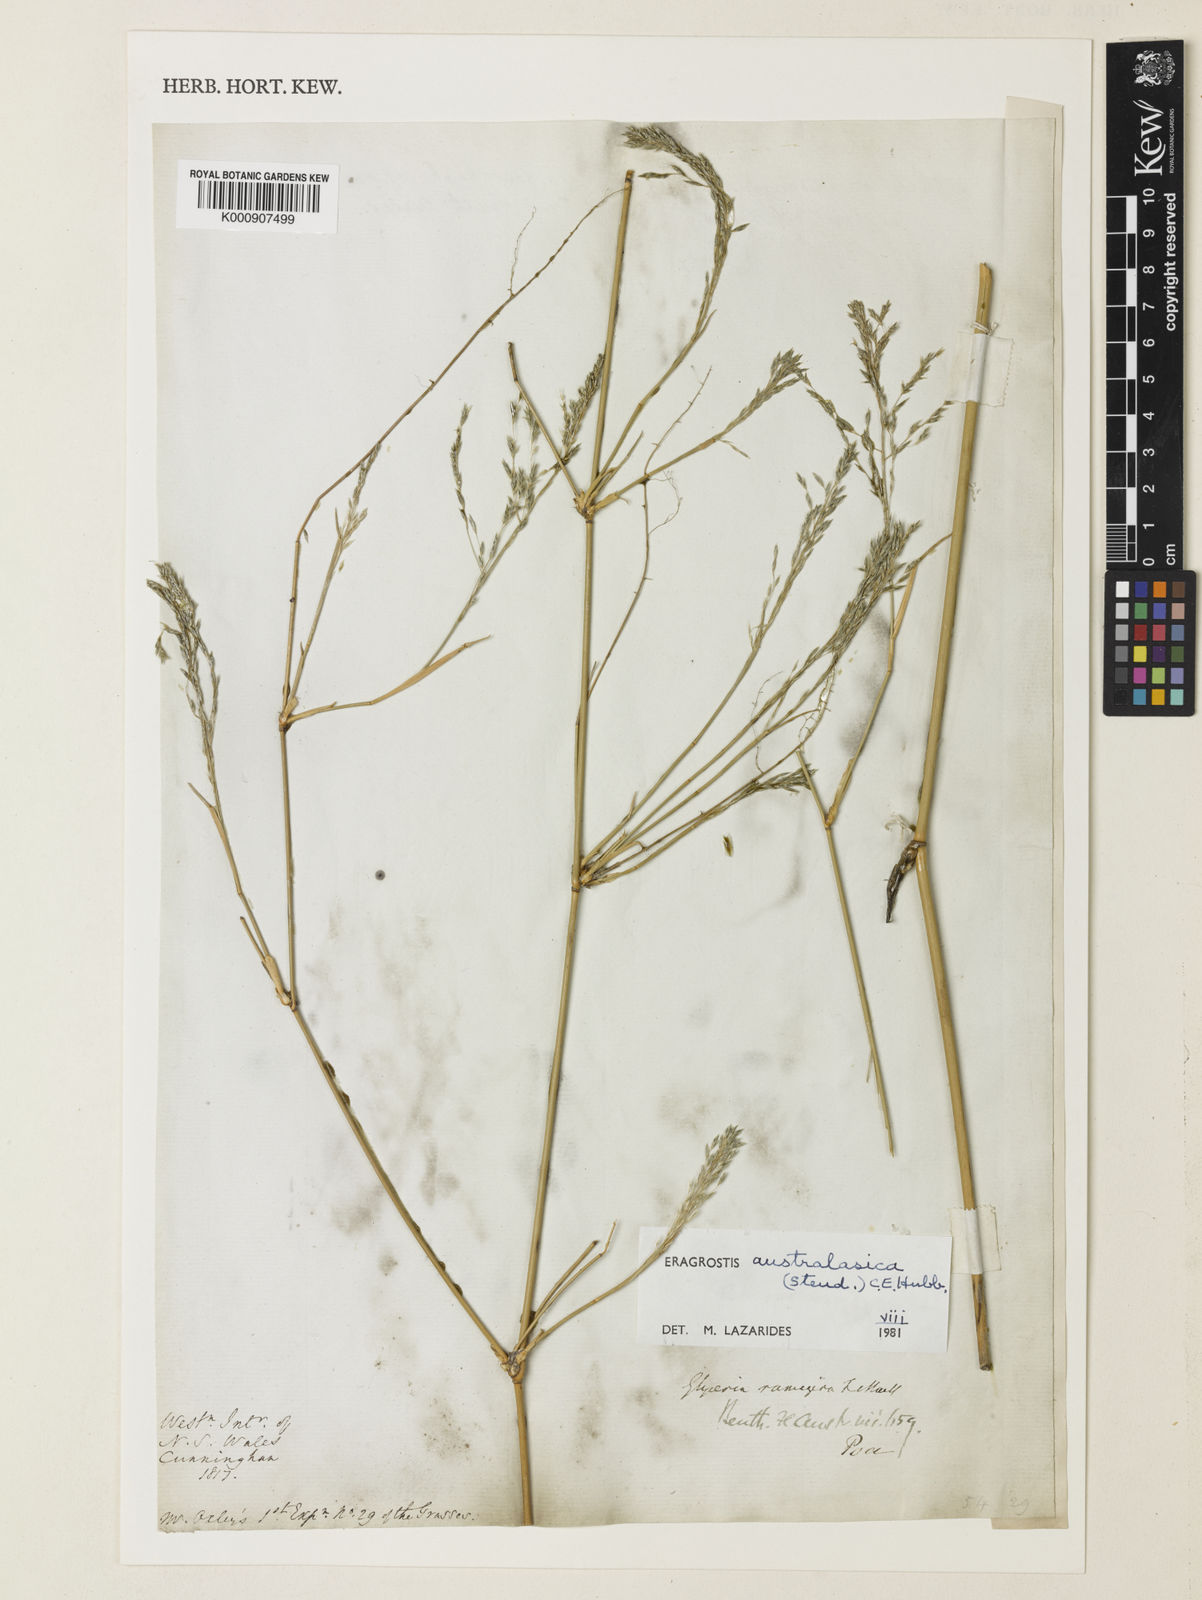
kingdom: Plantae
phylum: Tracheophyta
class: Liliopsida
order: Poales
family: Poaceae
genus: Sporobolus
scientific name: Sporobolus ramigerus
